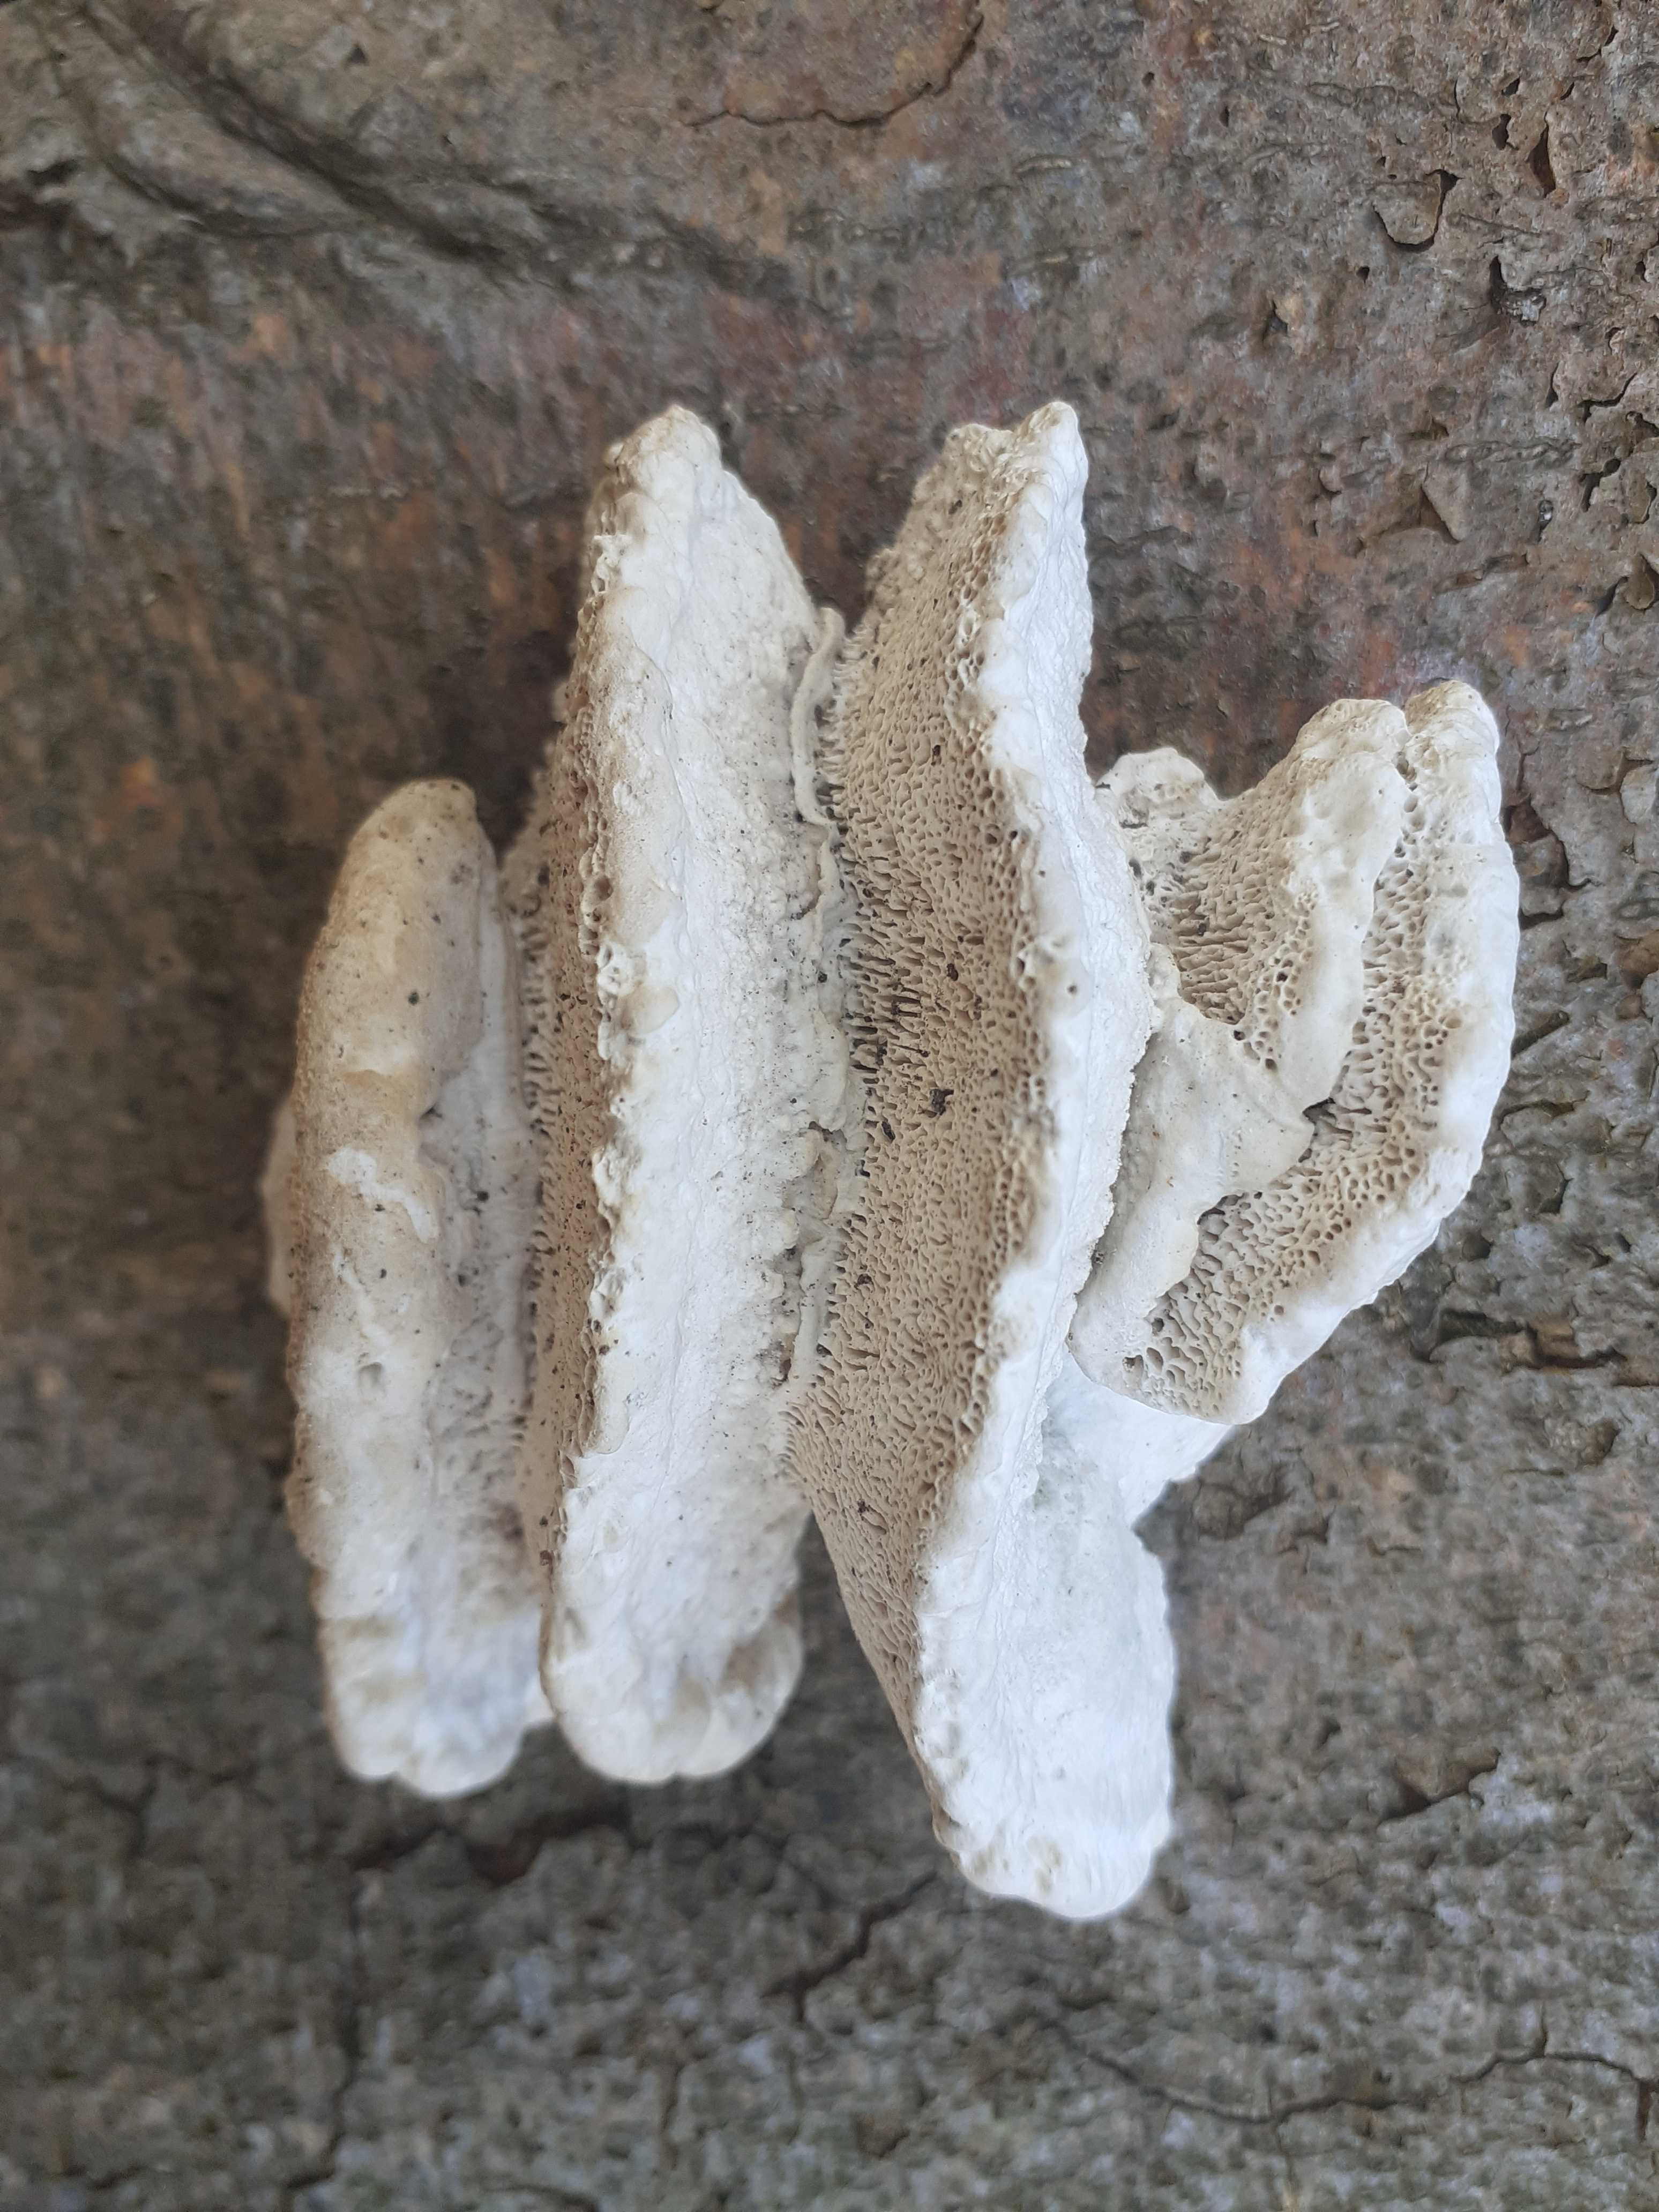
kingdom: Fungi
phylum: Basidiomycota
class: Agaricomycetes
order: Polyporales
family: Polyporaceae
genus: Trametes
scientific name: Trametes gibbosa
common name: puklet læderporesvamp
